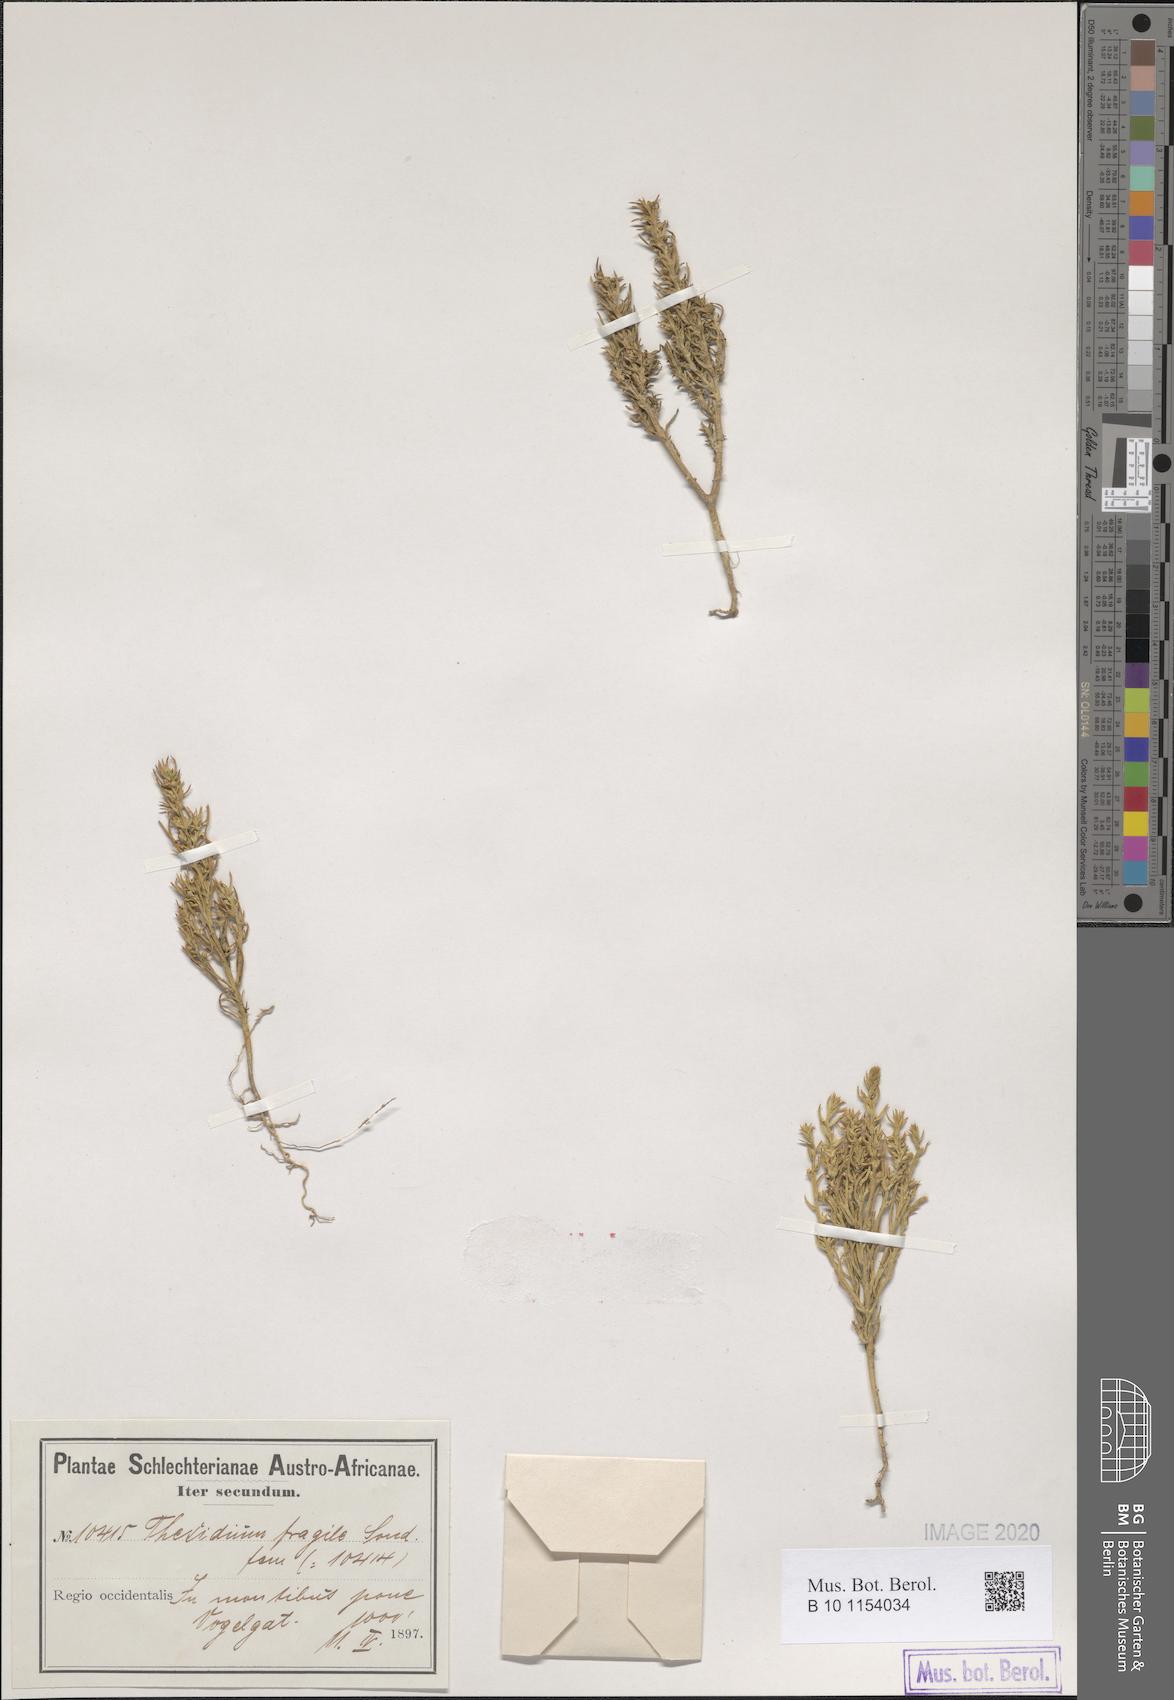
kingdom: Plantae
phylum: Tracheophyta
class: Magnoliopsida
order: Santalales
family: Thesiaceae
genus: Thesium
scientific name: Thesium fruticulosum
